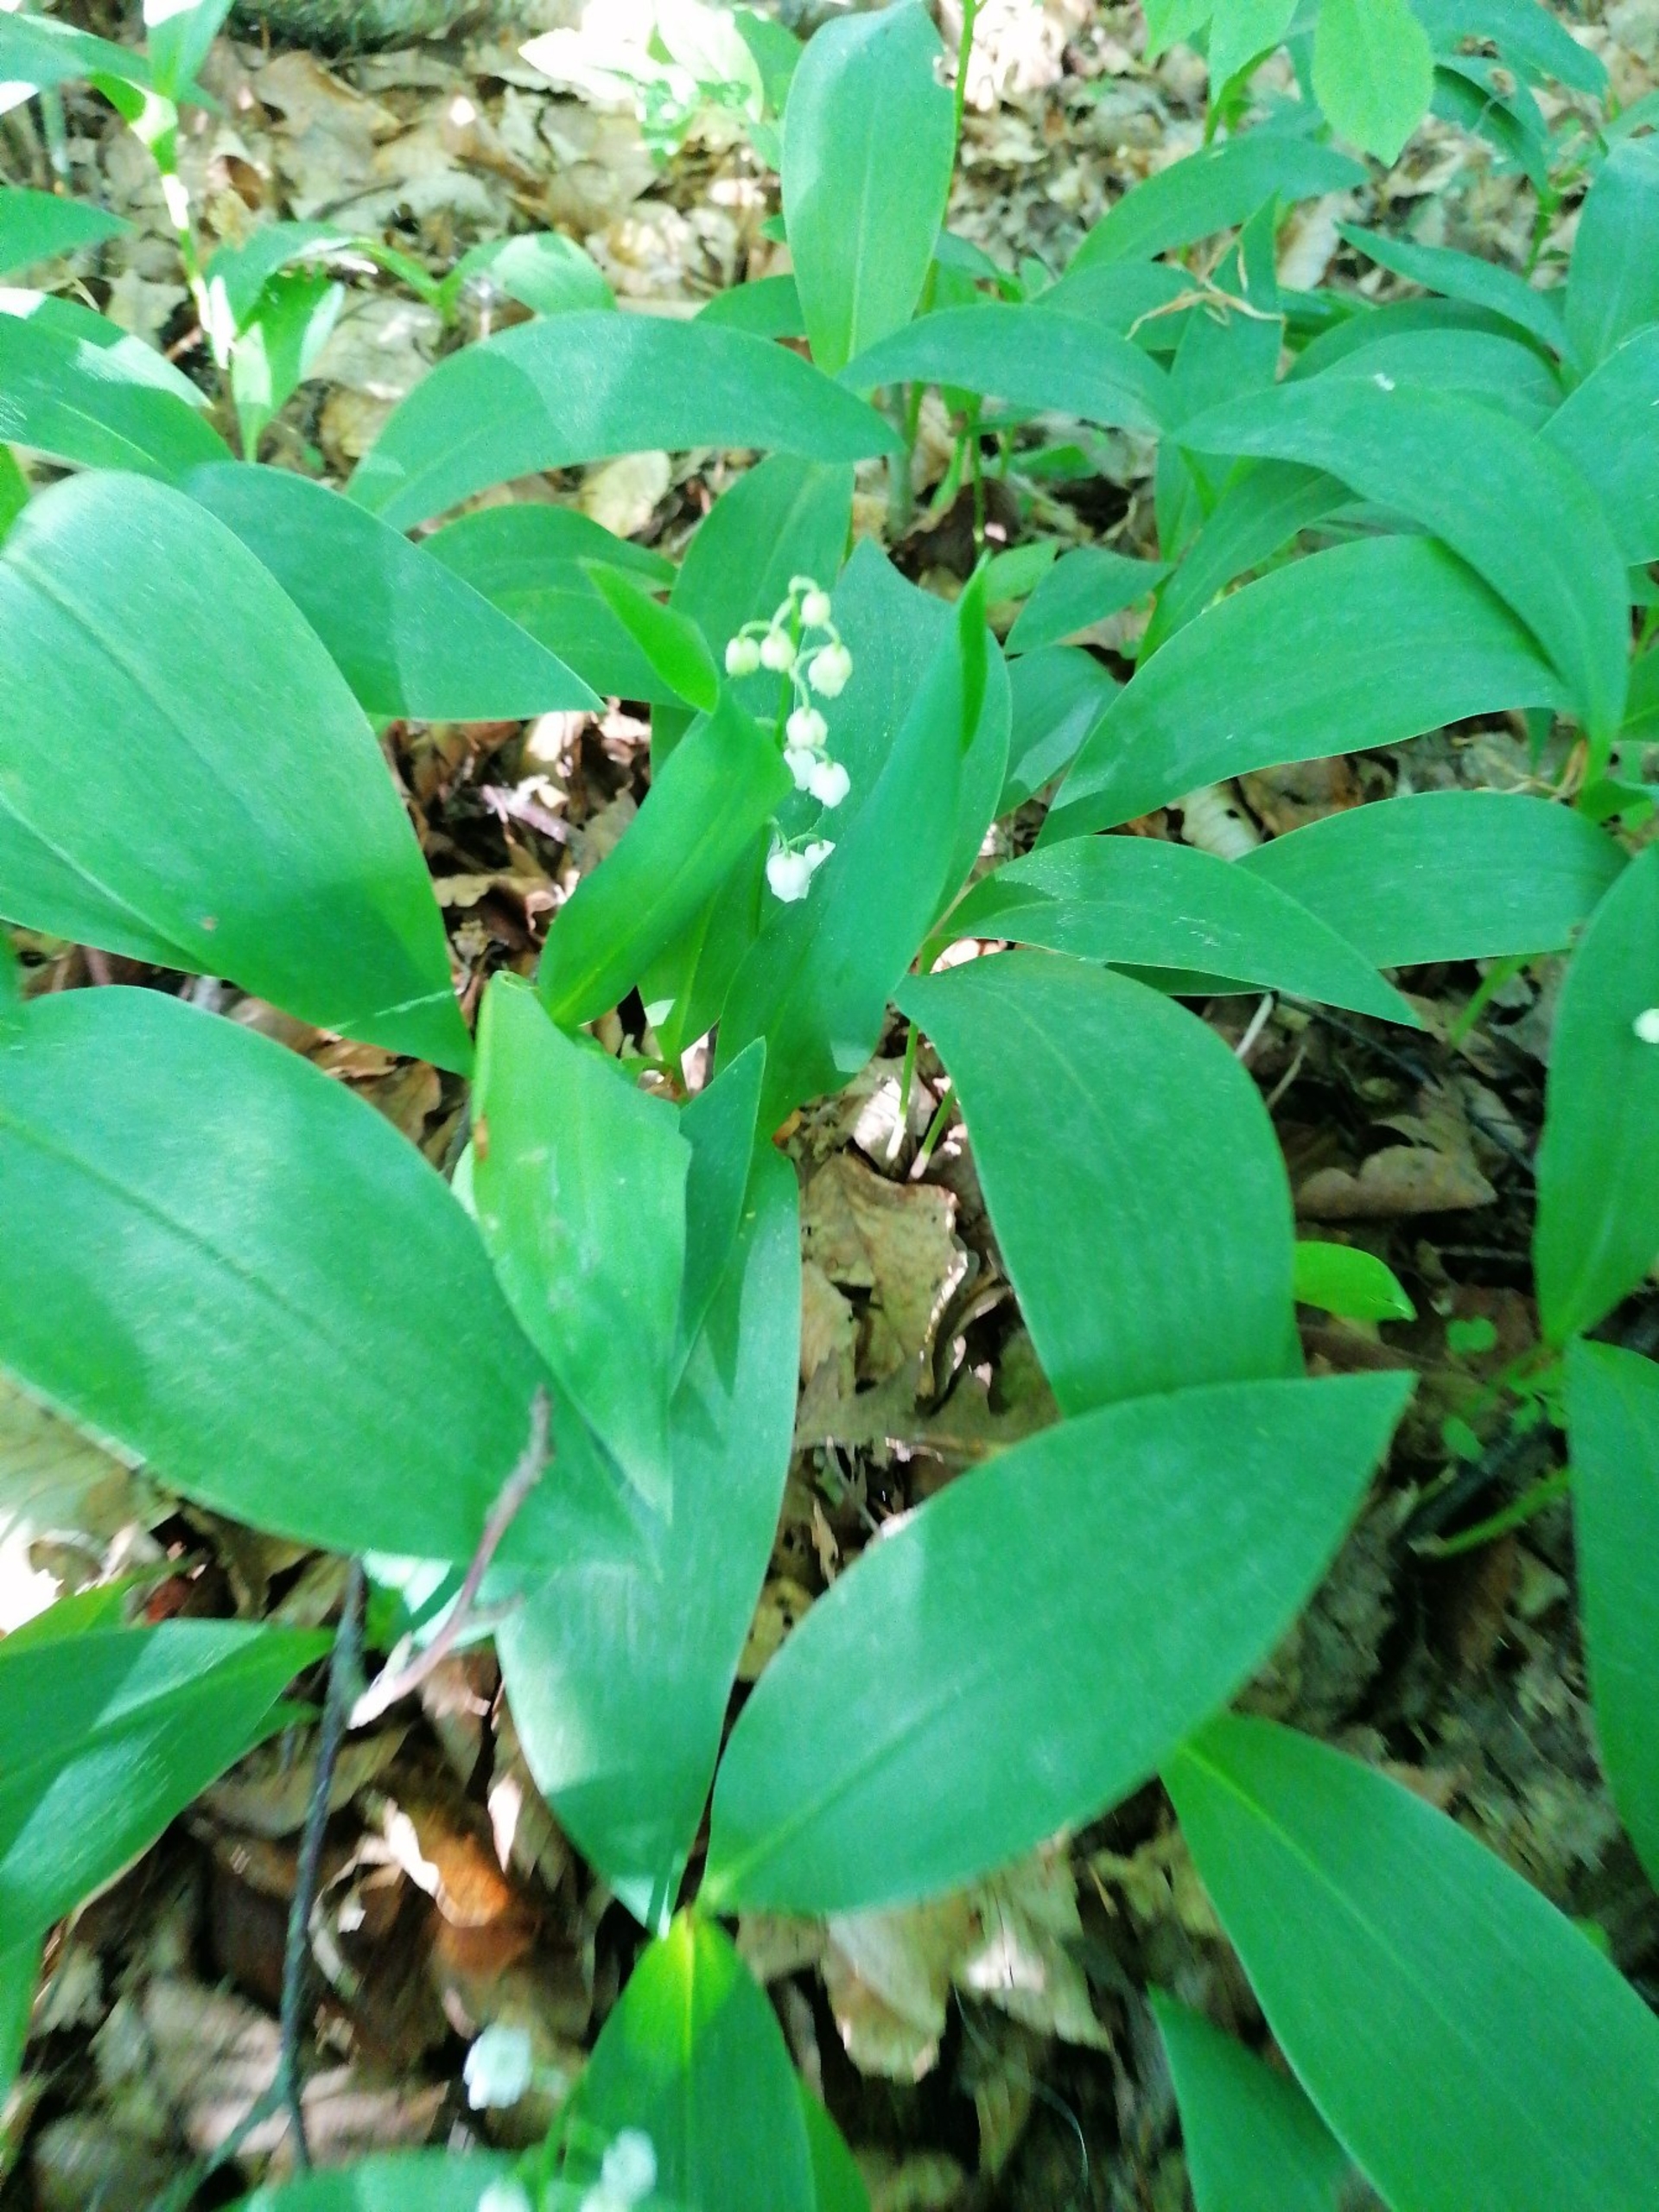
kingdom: Plantae
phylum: Tracheophyta
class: Liliopsida
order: Asparagales
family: Asparagaceae
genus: Convallaria
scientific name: Convallaria majalis
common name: Liljekonval
